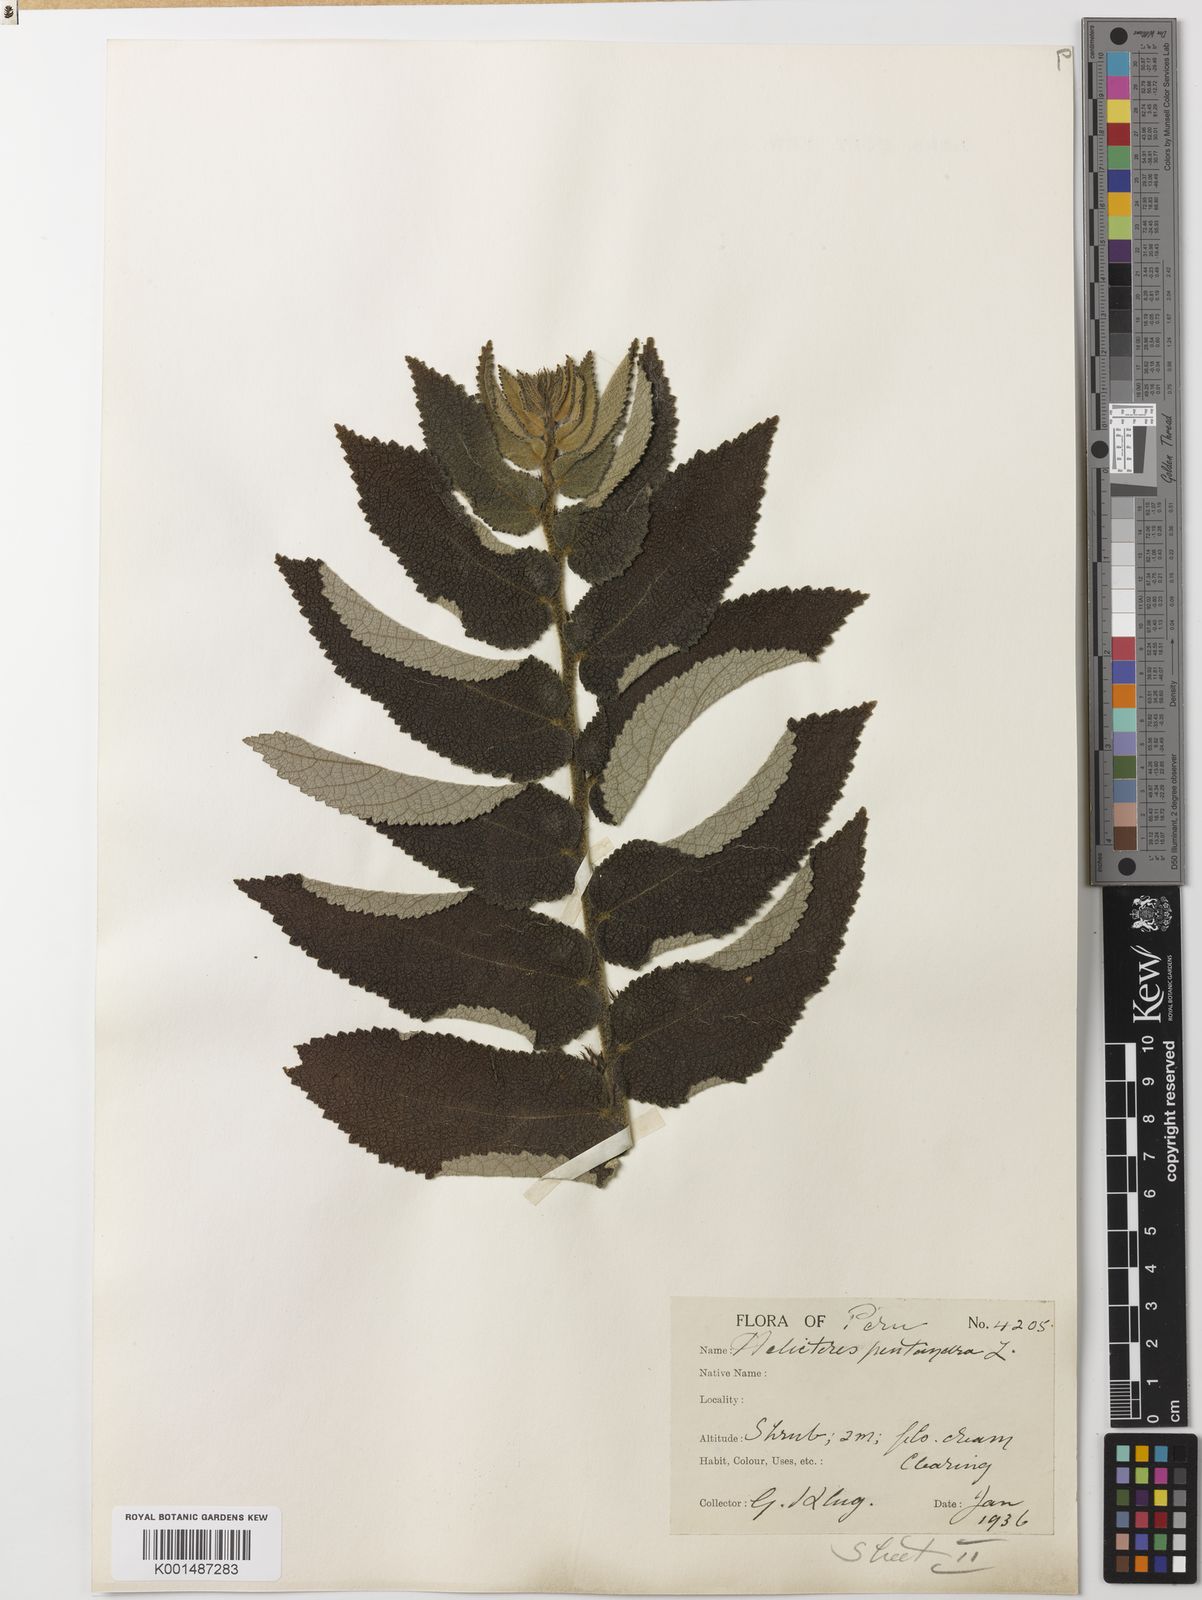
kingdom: Plantae
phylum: Tracheophyta
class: Magnoliopsida
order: Malvales
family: Malvaceae
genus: Helicteres
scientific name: Helicteres pentandra
